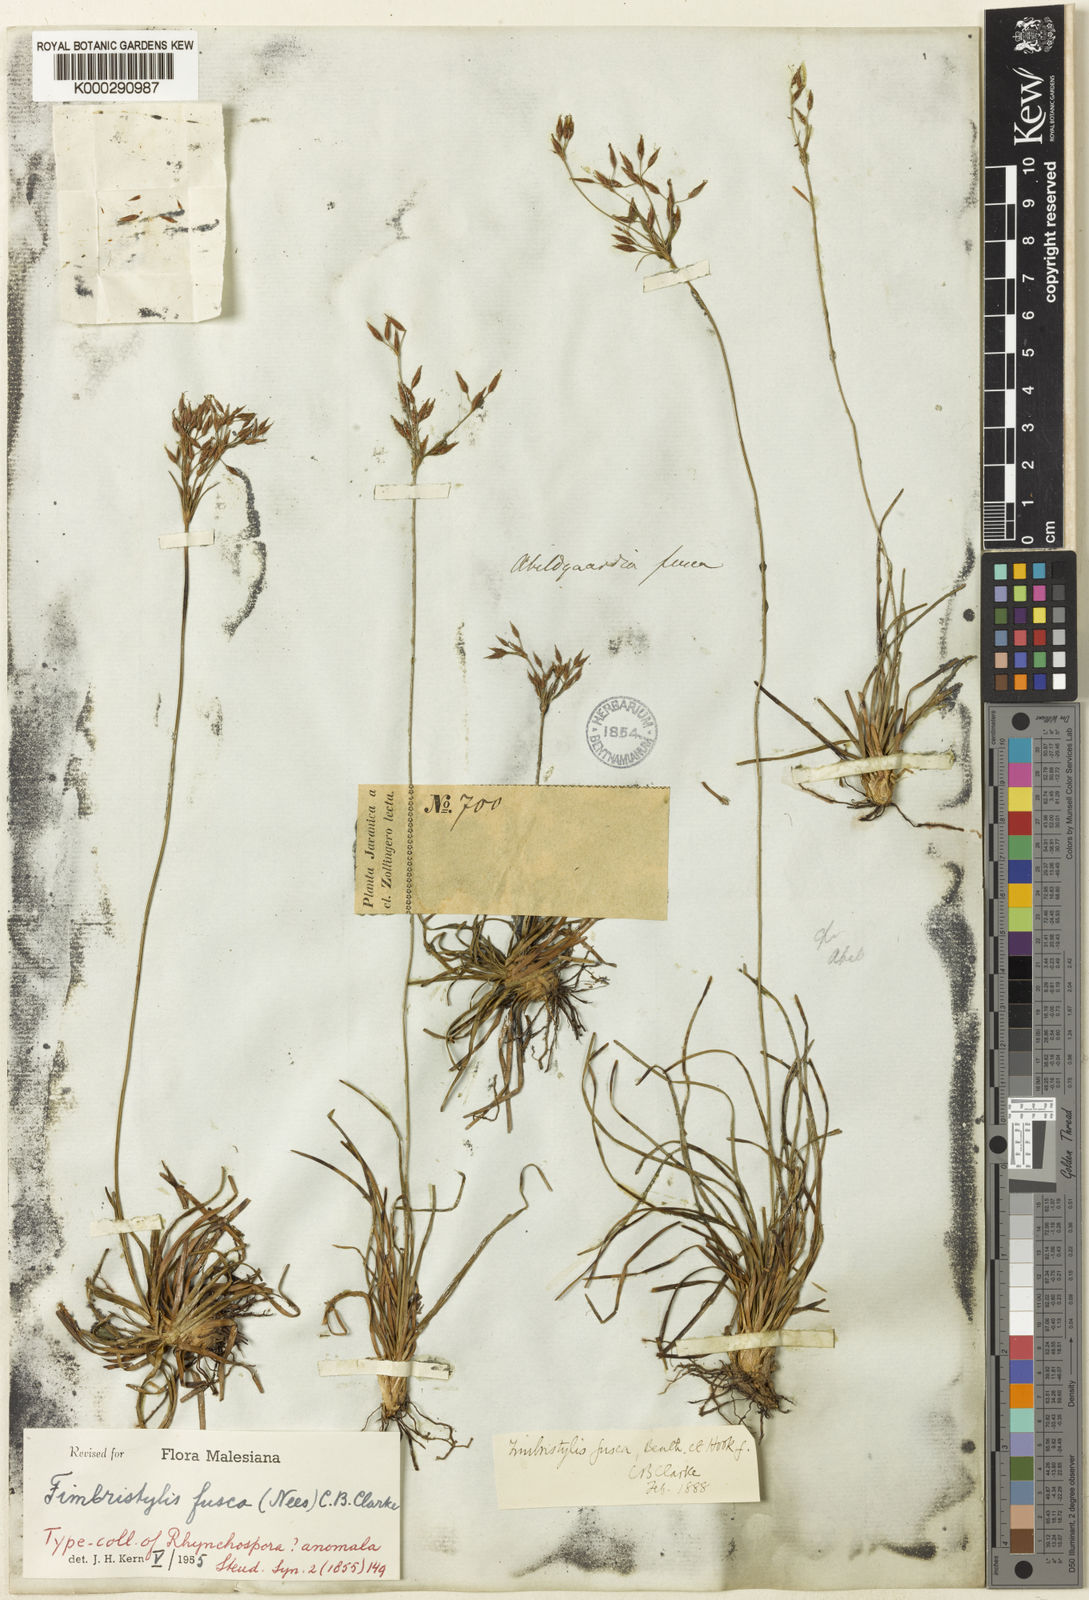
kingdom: Plantae
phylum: Tracheophyta
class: Liliopsida
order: Poales
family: Cyperaceae
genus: Fimbristylis
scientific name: Fimbristylis fusca
